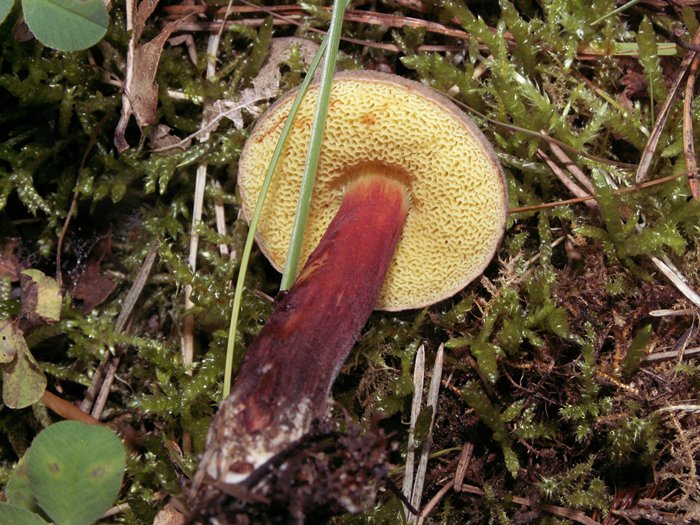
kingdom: Fungi
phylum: Basidiomycota
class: Agaricomycetes
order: Boletales
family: Boletaceae
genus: Xerocomellus
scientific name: Xerocomellus chrysenteron
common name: rødsprukken rørhat
